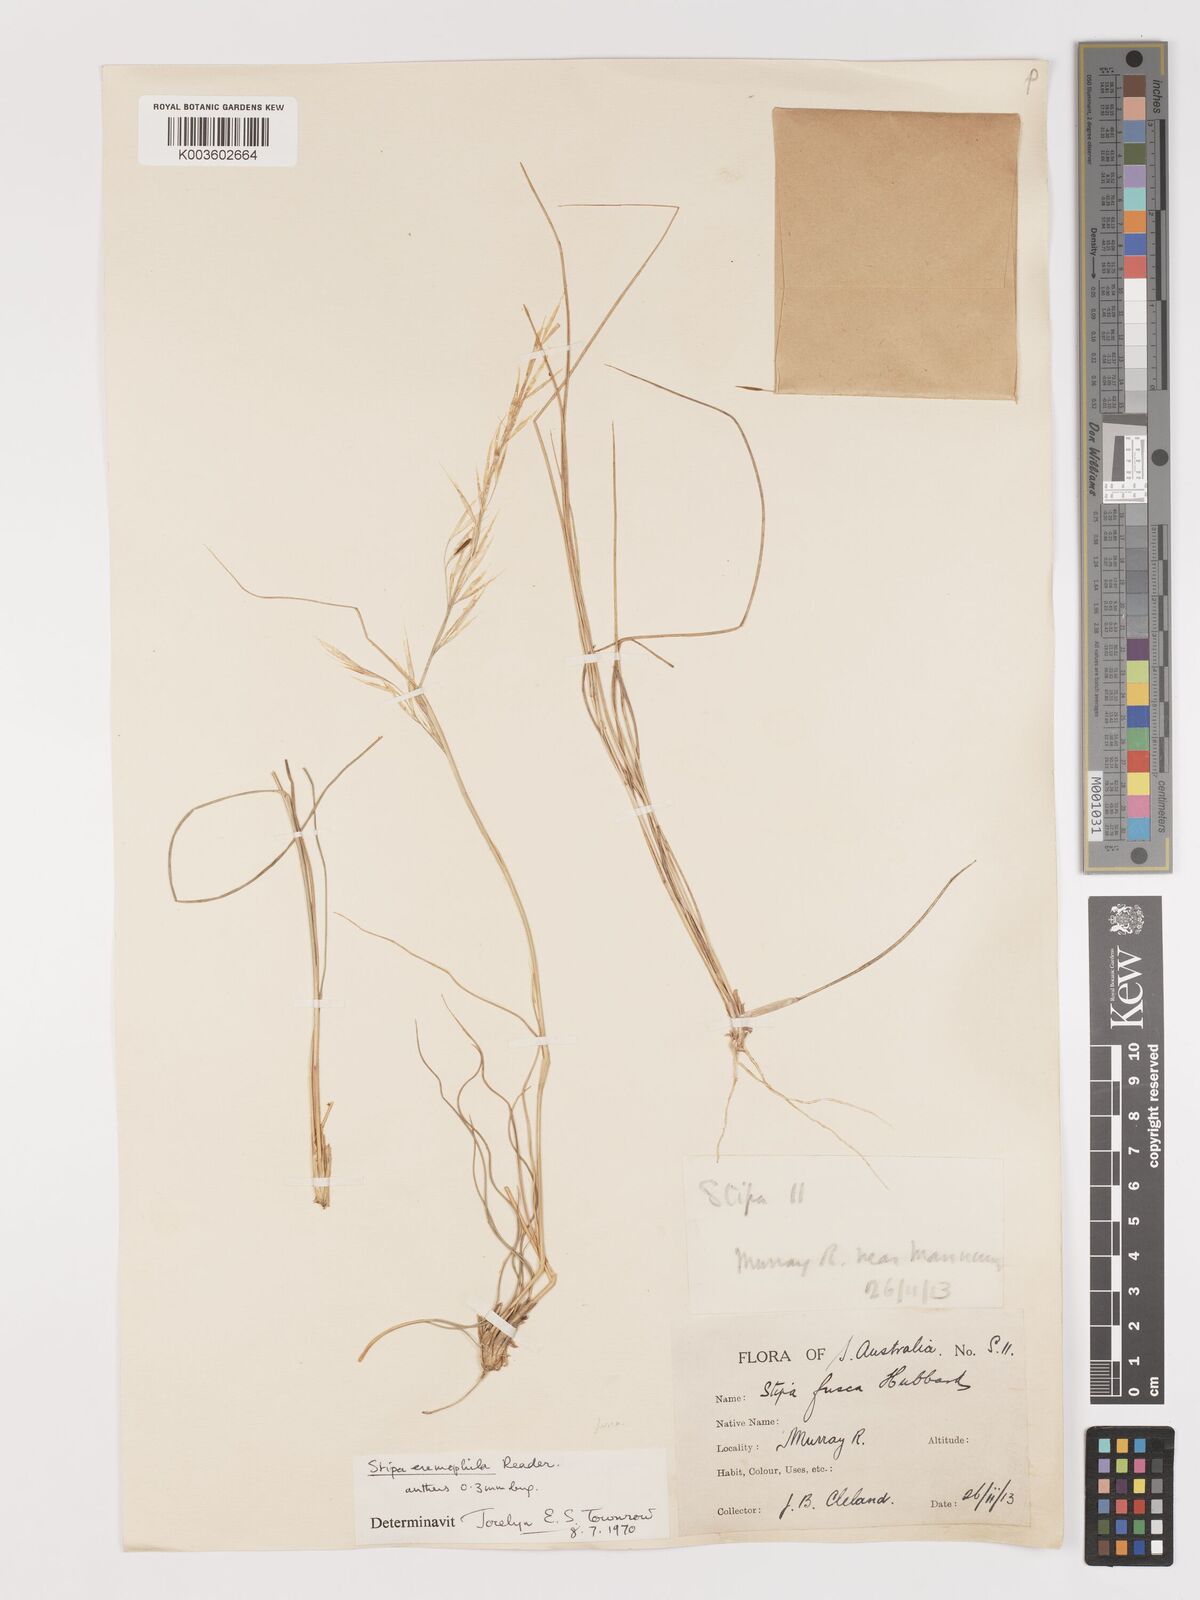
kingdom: Plantae
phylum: Tracheophyta
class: Liliopsida
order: Poales
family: Poaceae
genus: Austrostipa
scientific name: Austrostipa eremophila
